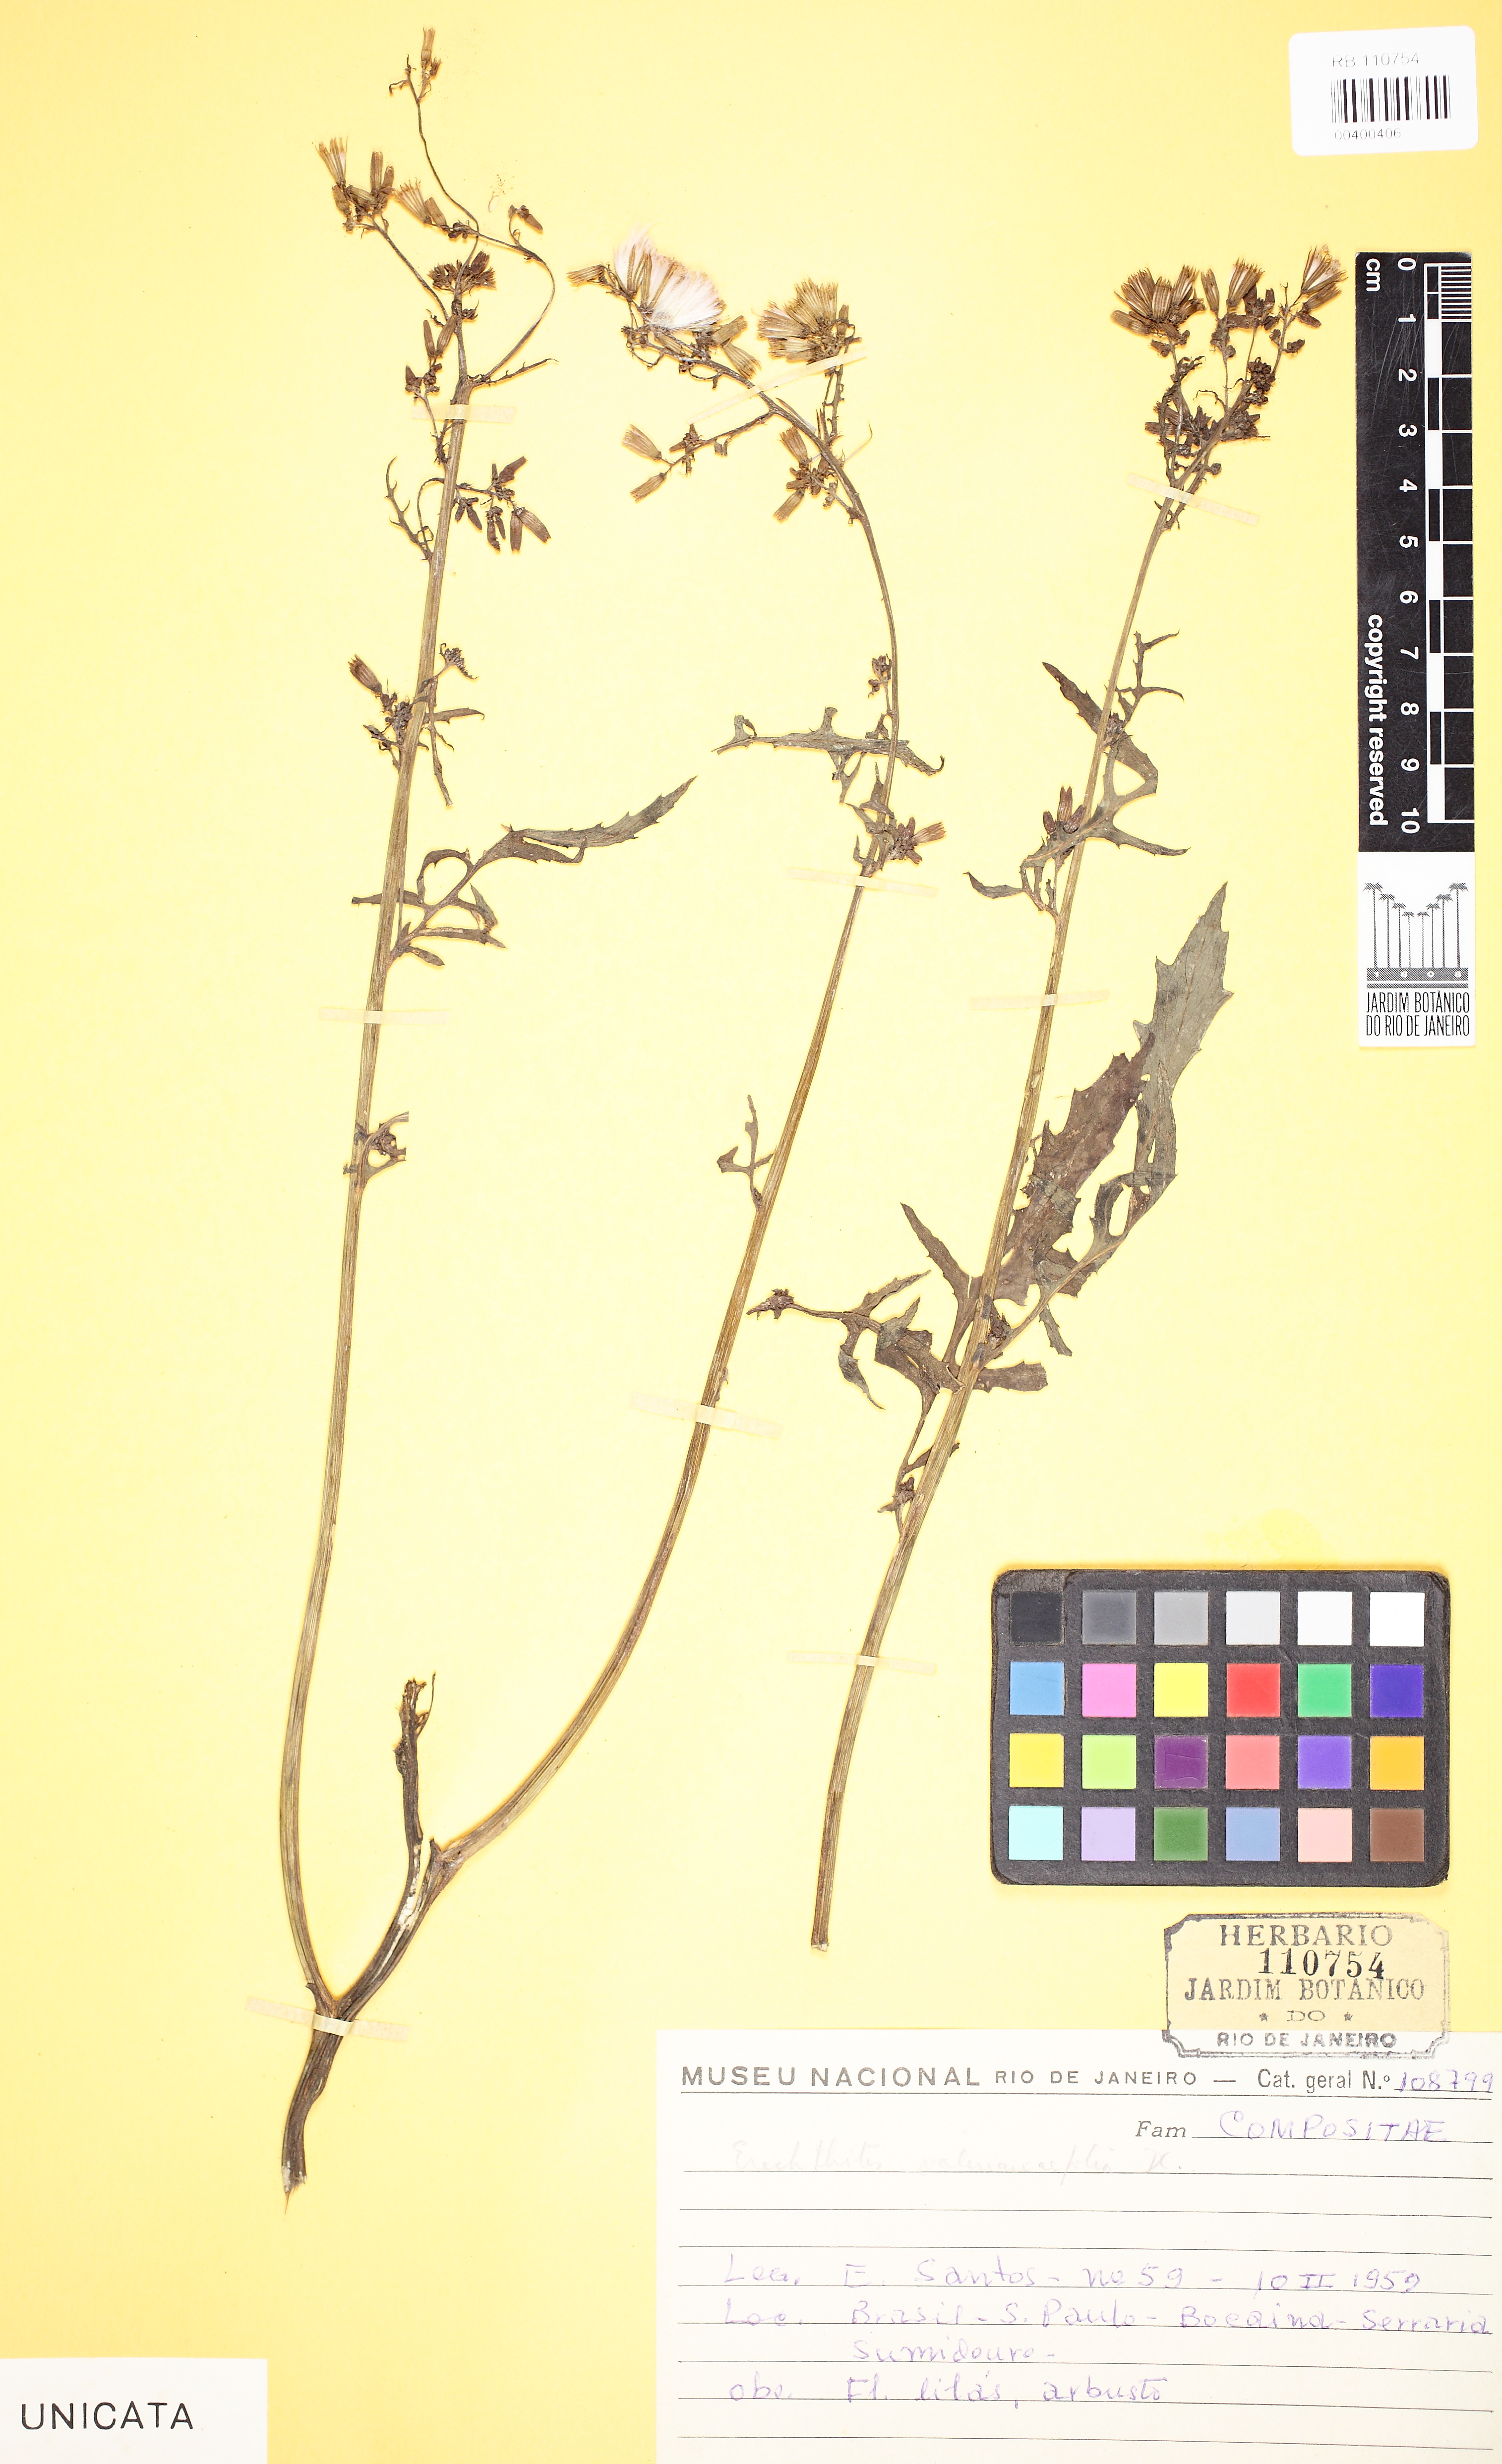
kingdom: Plantae
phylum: Tracheophyta
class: Magnoliopsida
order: Asterales
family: Asteraceae
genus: Erechtites
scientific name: Erechtites valerianifolius
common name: Tropical burnweed
